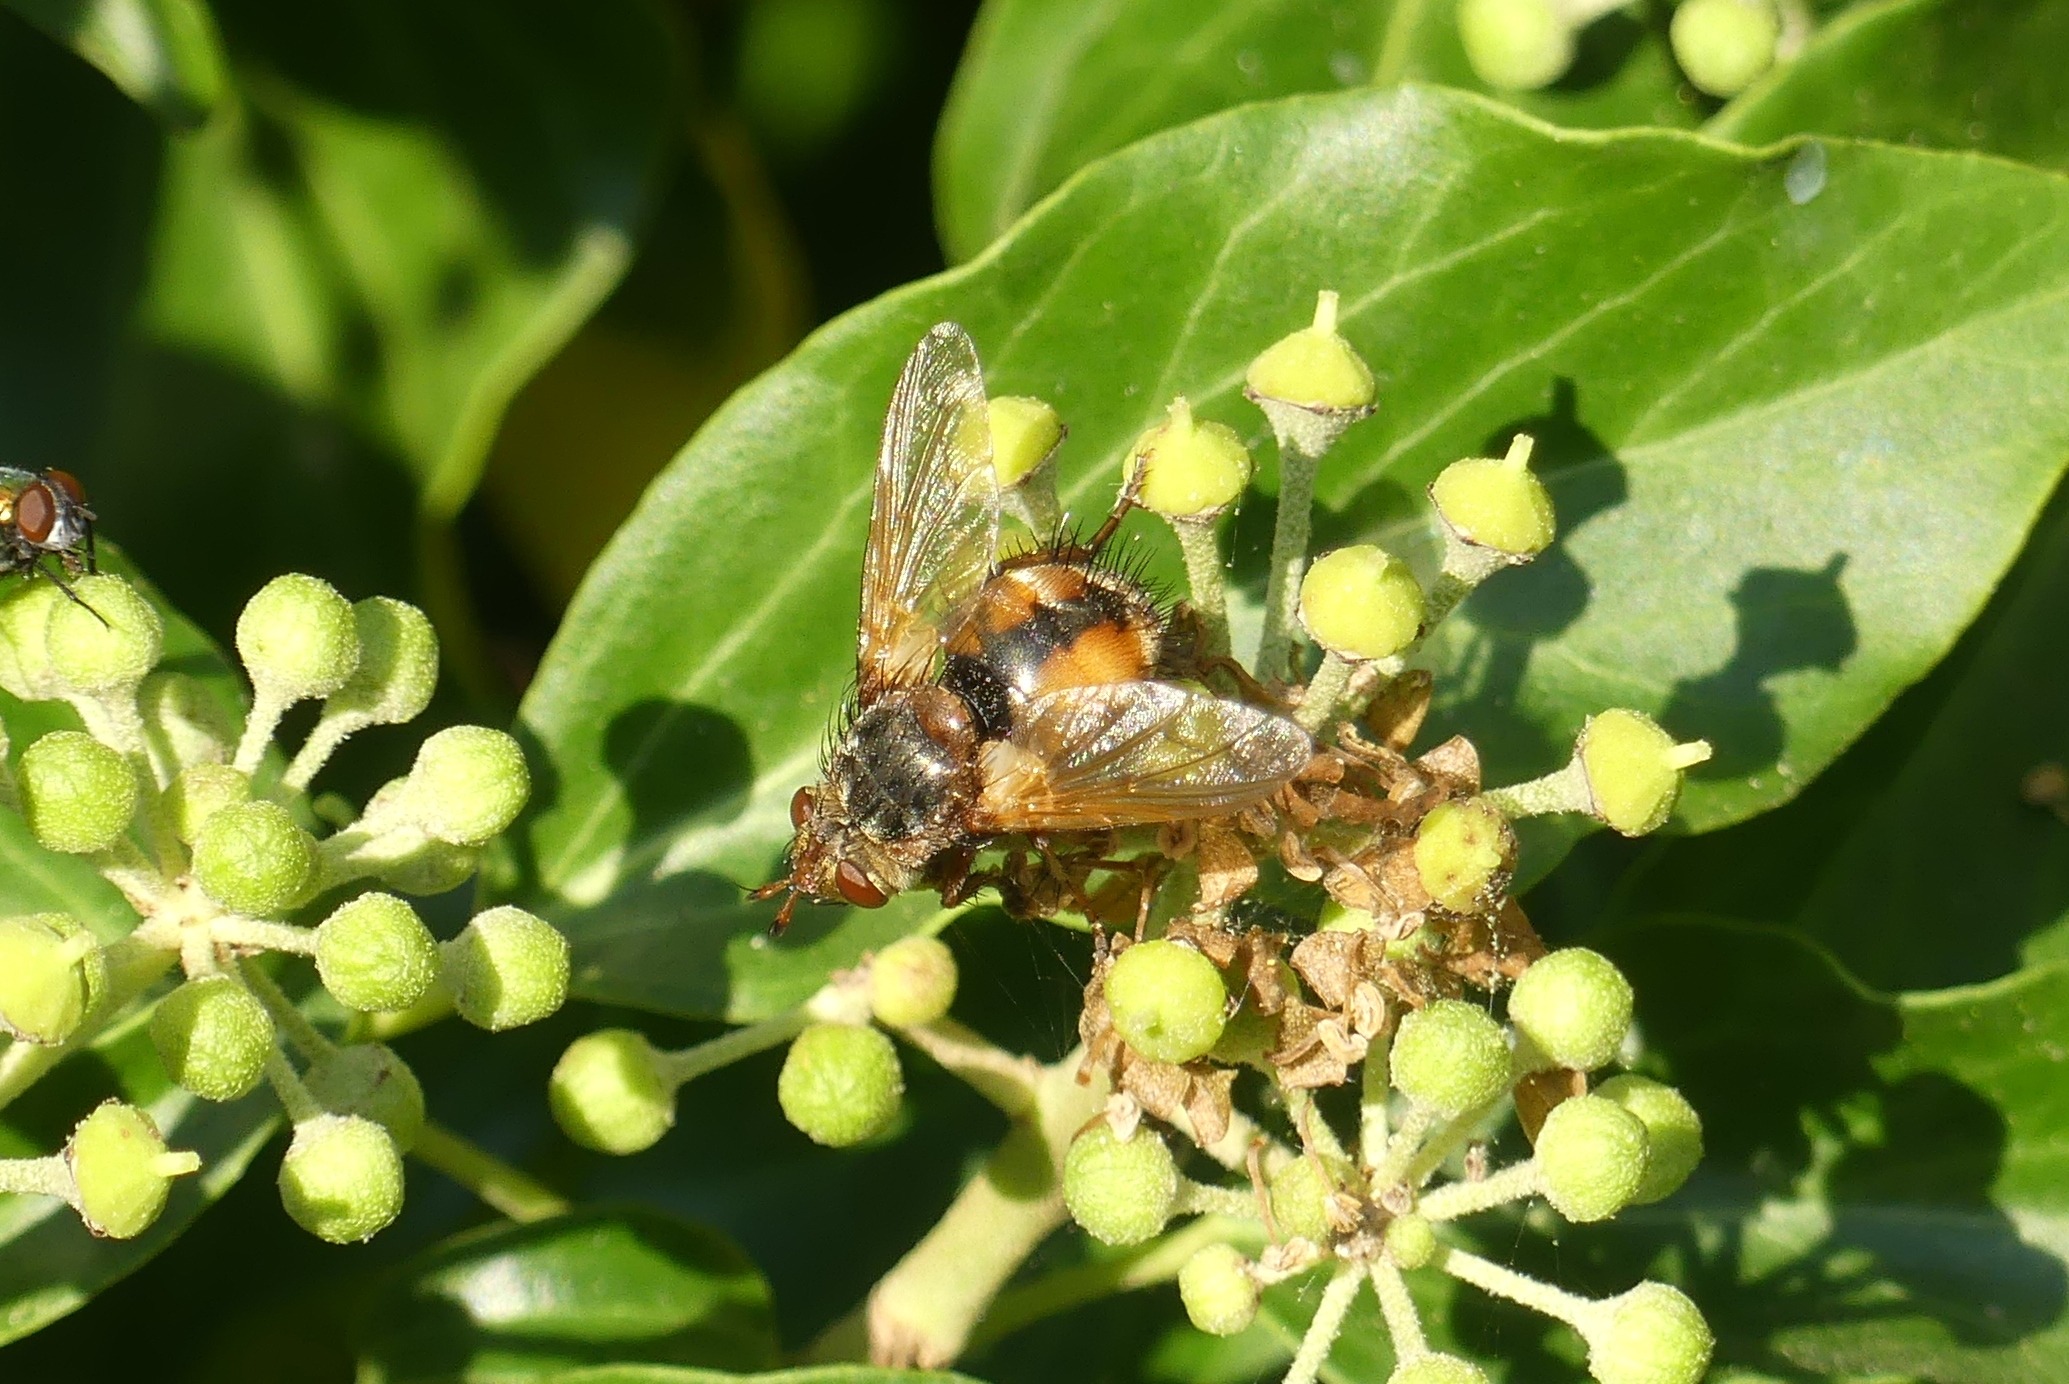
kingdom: Animalia
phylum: Arthropoda
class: Insecta
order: Diptera
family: Tachinidae
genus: Tachina
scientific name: Tachina fera
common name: Mellemfluen oskar
